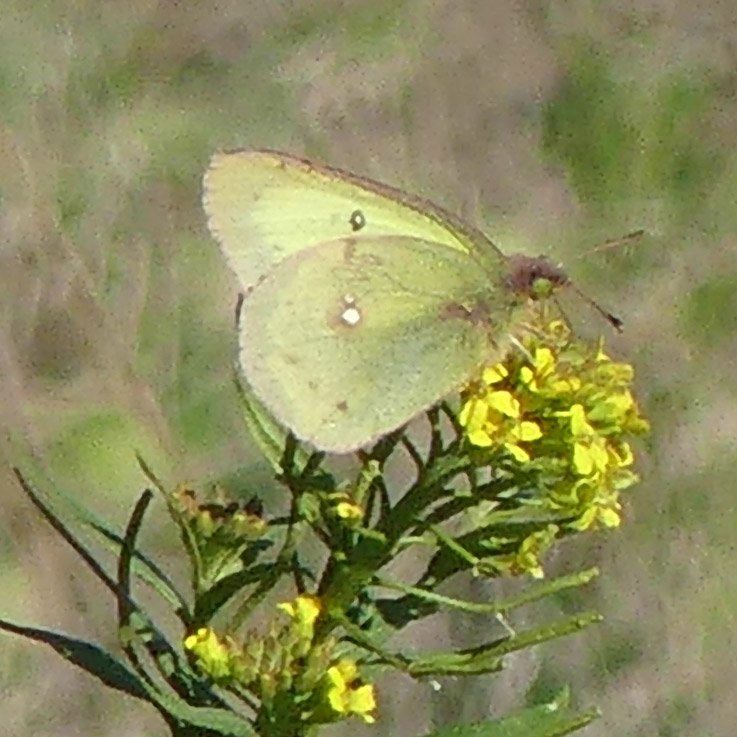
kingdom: Animalia
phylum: Arthropoda
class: Insecta
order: Lepidoptera
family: Pieridae
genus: Colias
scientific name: Colias philodice
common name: Clouded Sulphur
